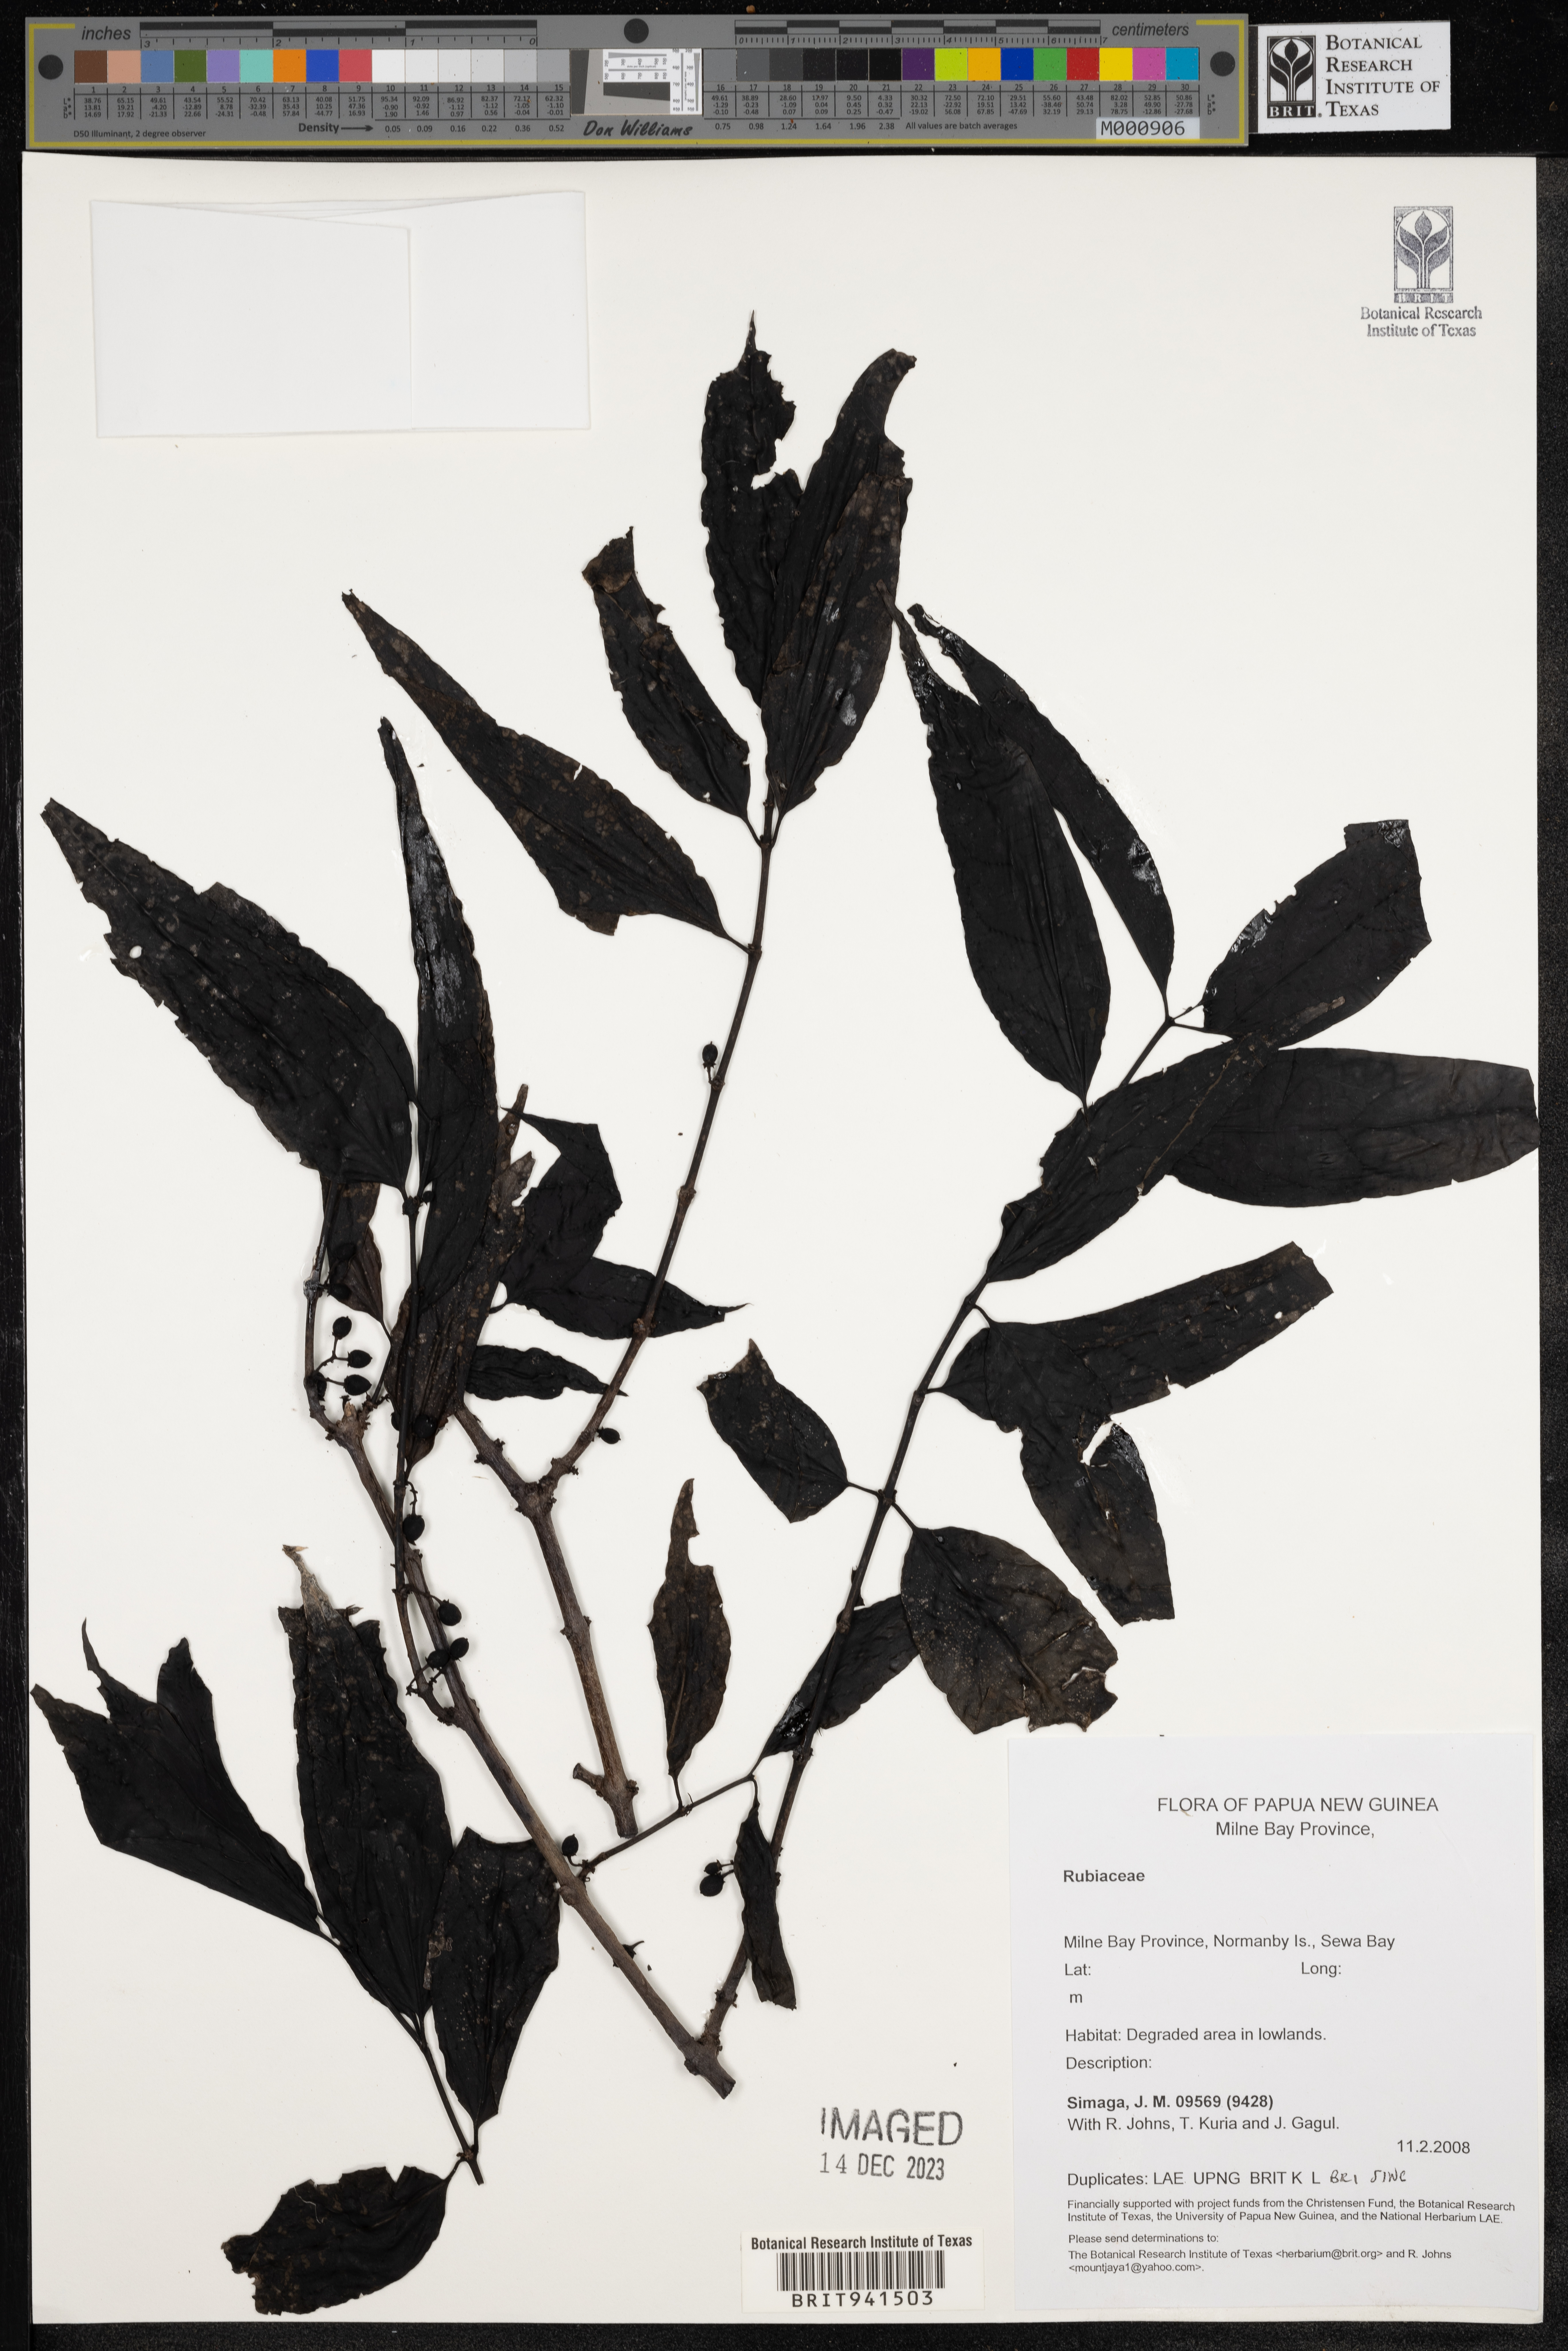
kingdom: Plantae
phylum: Tracheophyta
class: Magnoliopsida
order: Gentianales
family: Rubiaceae
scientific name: Rubiaceae
